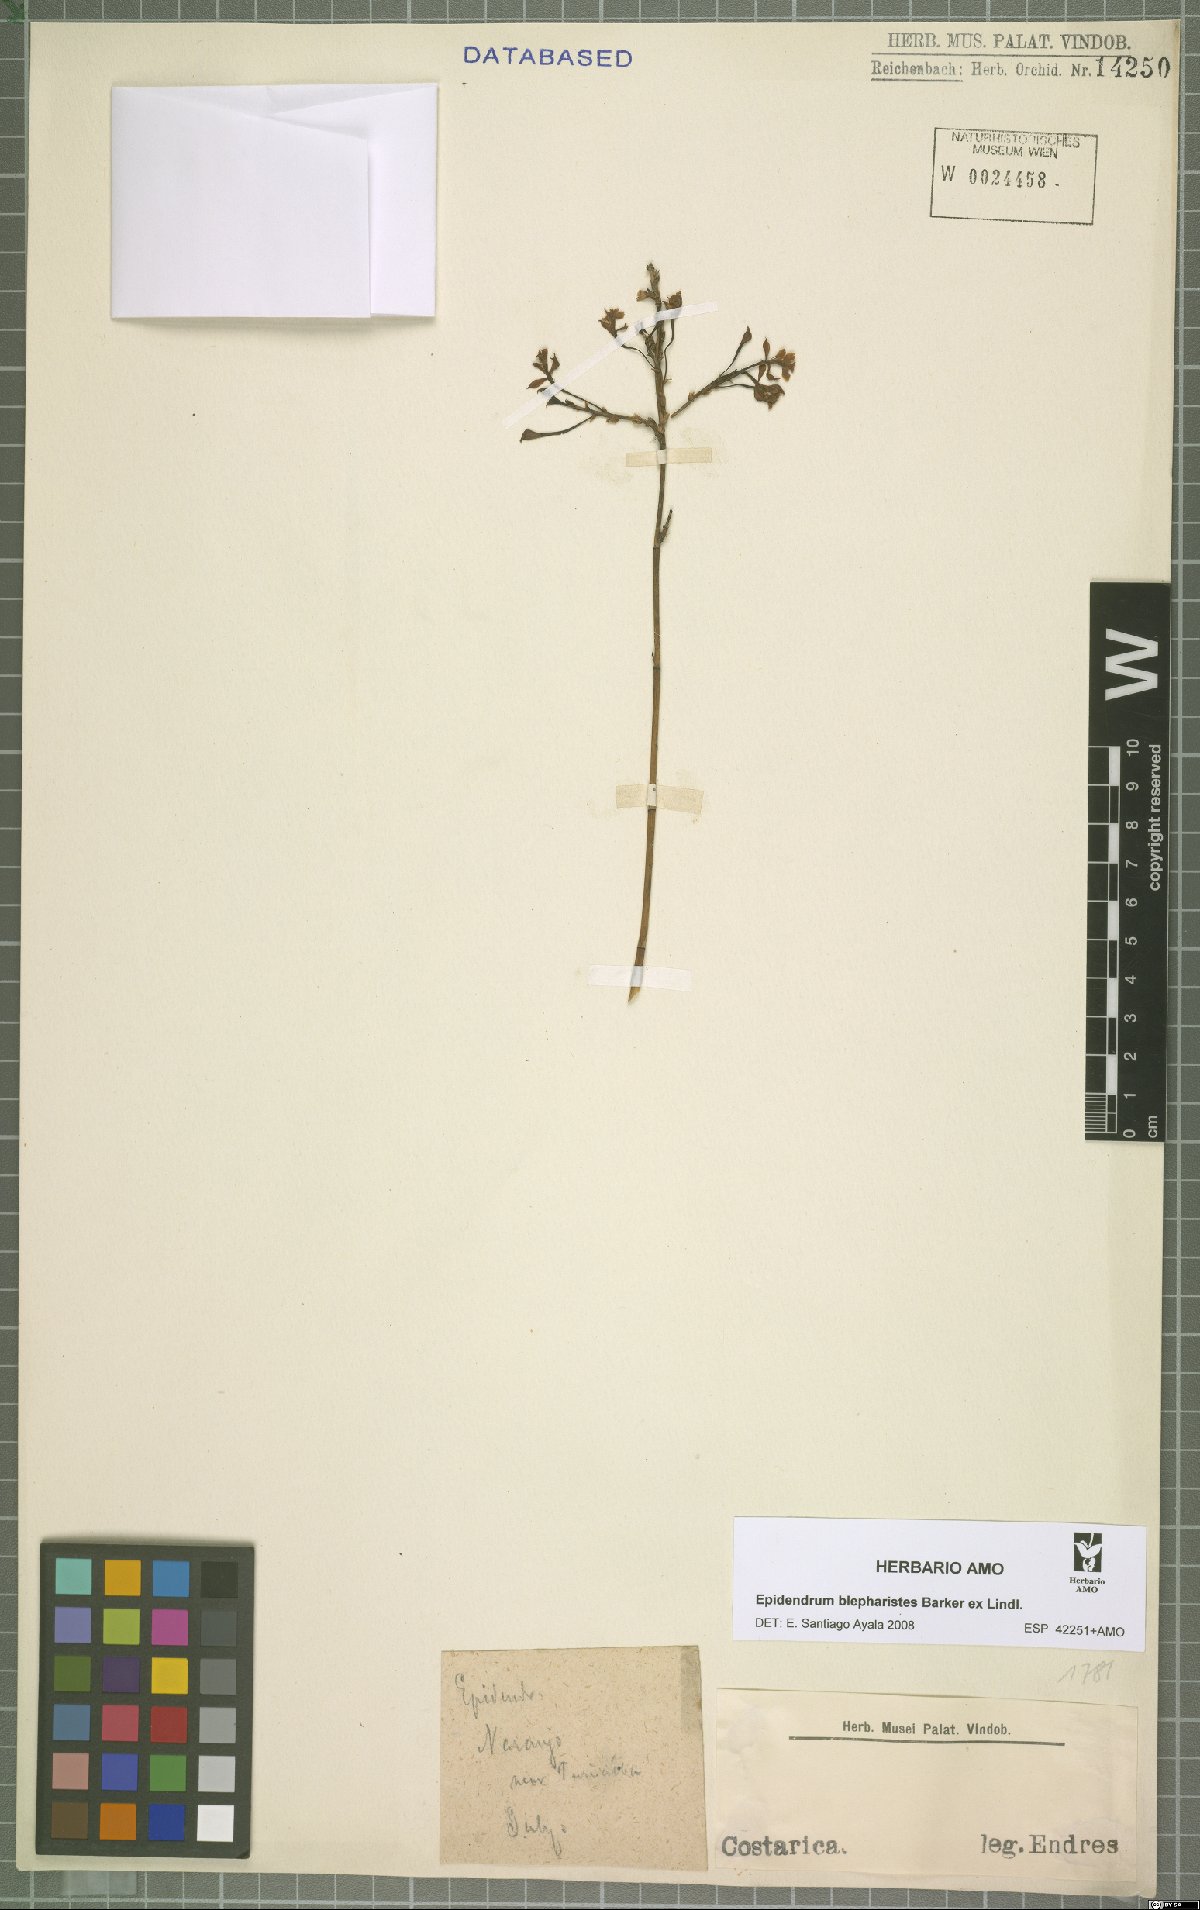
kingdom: Plantae
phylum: Tracheophyta
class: Liliopsida
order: Asparagales
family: Orchidaceae
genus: Epidendrum
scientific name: Epidendrum blepharistes
